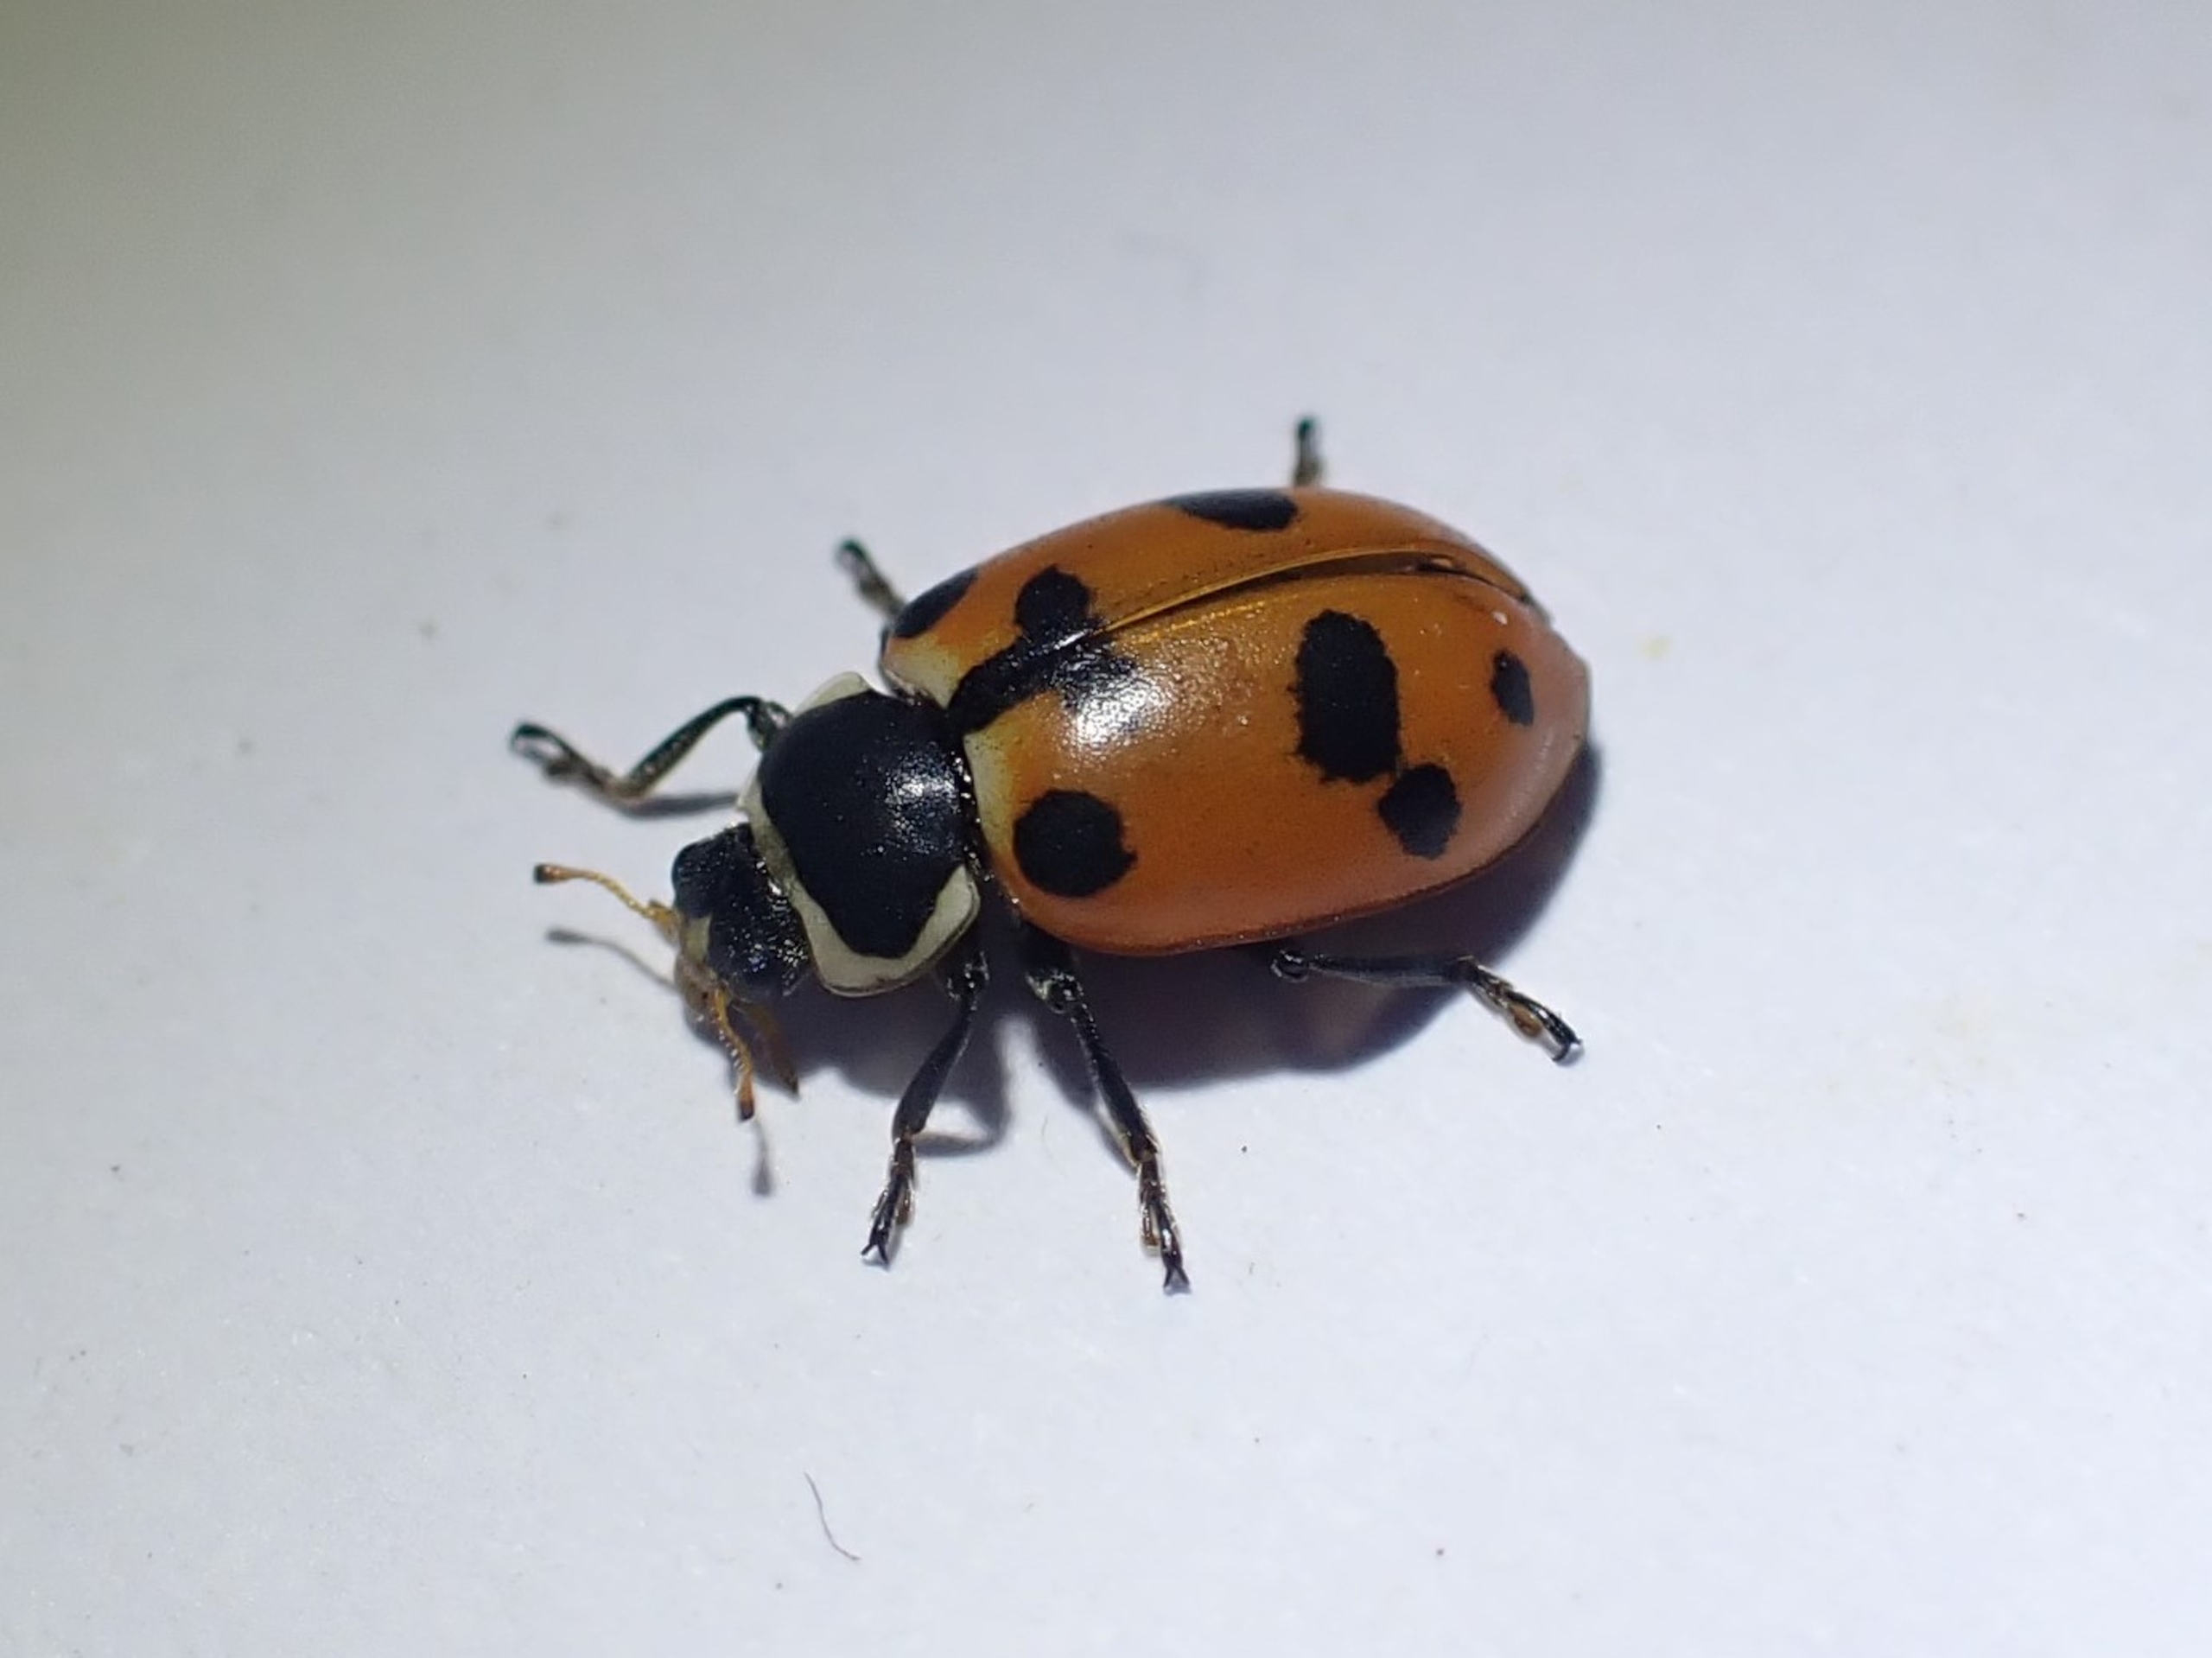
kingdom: Animalia
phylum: Arthropoda
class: Insecta
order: Coleoptera
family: Coccinellidae
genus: Hippodamia
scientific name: Hippodamia septemmaculata
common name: Syvprikket mariehøne
